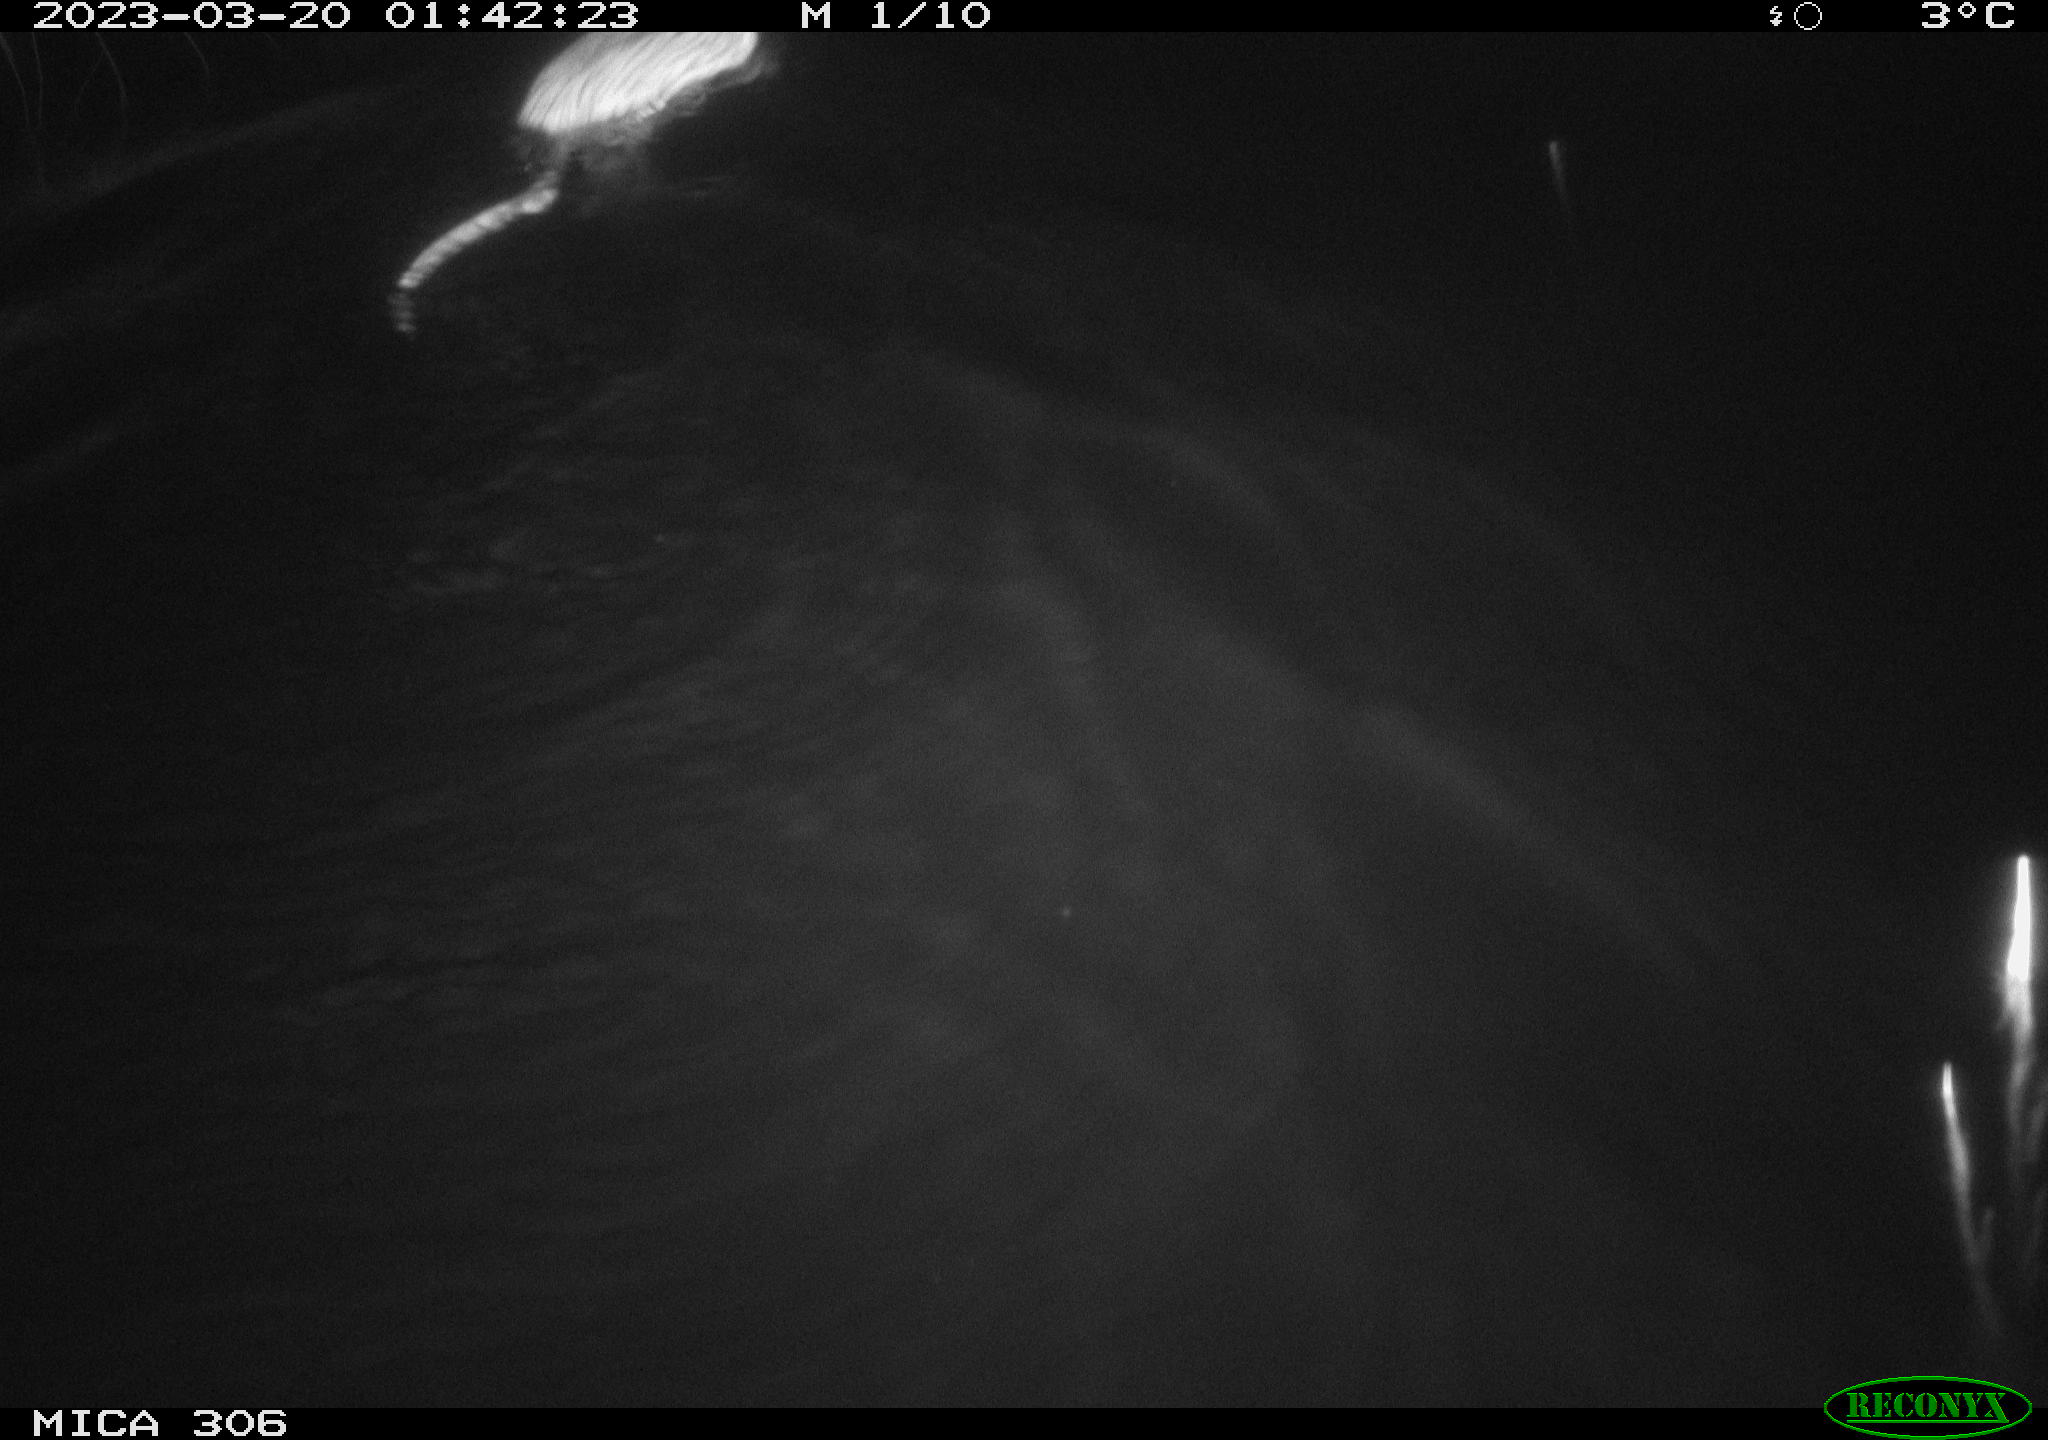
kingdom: Animalia
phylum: Chordata
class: Mammalia
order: Rodentia
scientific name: Rodentia
